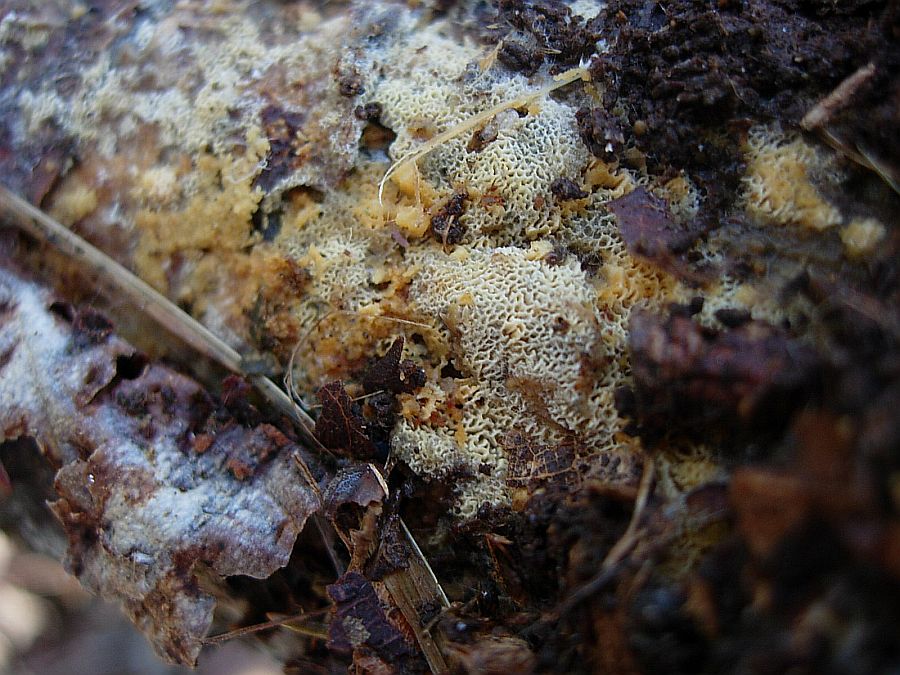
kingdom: Fungi
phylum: Basidiomycota
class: Agaricomycetes
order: Hymenochaetales
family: Schizoporaceae
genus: Xylodon
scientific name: Xylodon subtropicus
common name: labyrint-tandsvamp
